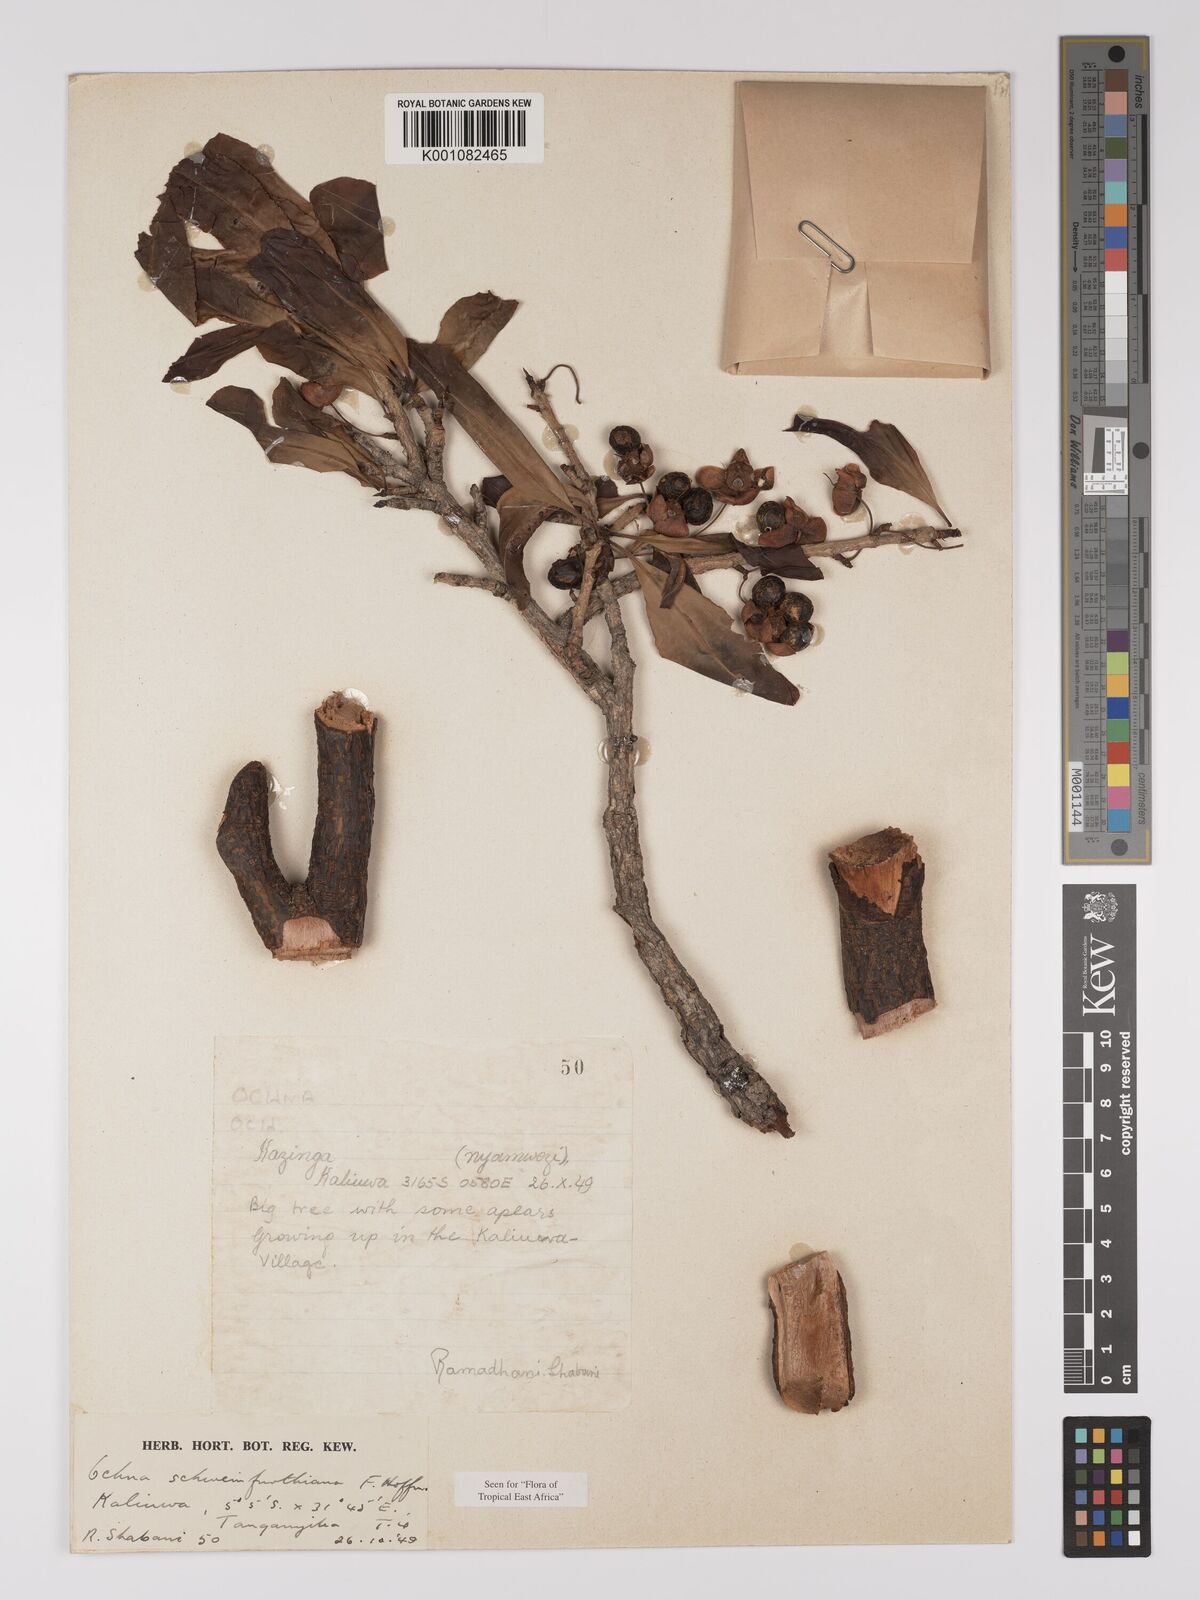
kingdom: Plantae
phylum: Tracheophyta
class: Magnoliopsida
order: Malpighiales
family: Ochnaceae
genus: Ochna
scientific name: Ochna schweinfurthiana
